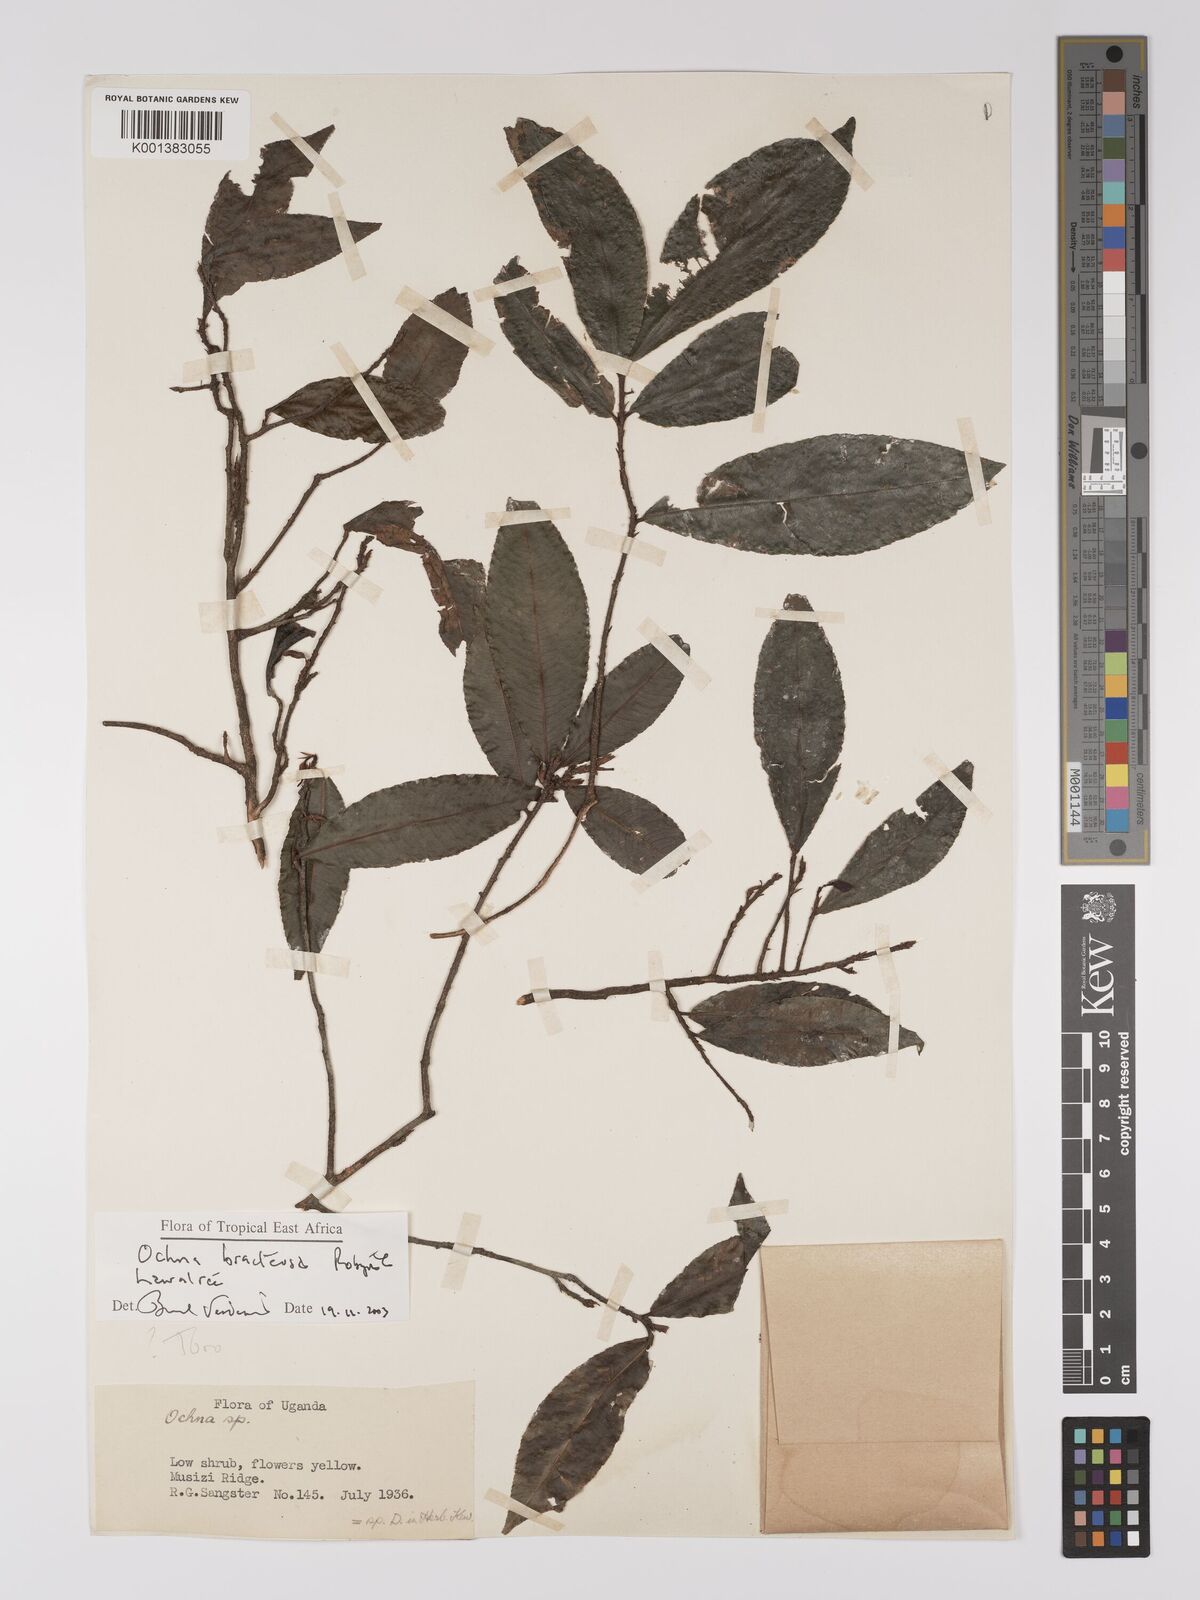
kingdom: Plantae
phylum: Tracheophyta
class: Magnoliopsida
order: Malpighiales
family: Ochnaceae
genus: Ochna
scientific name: Ochna bracteosa
